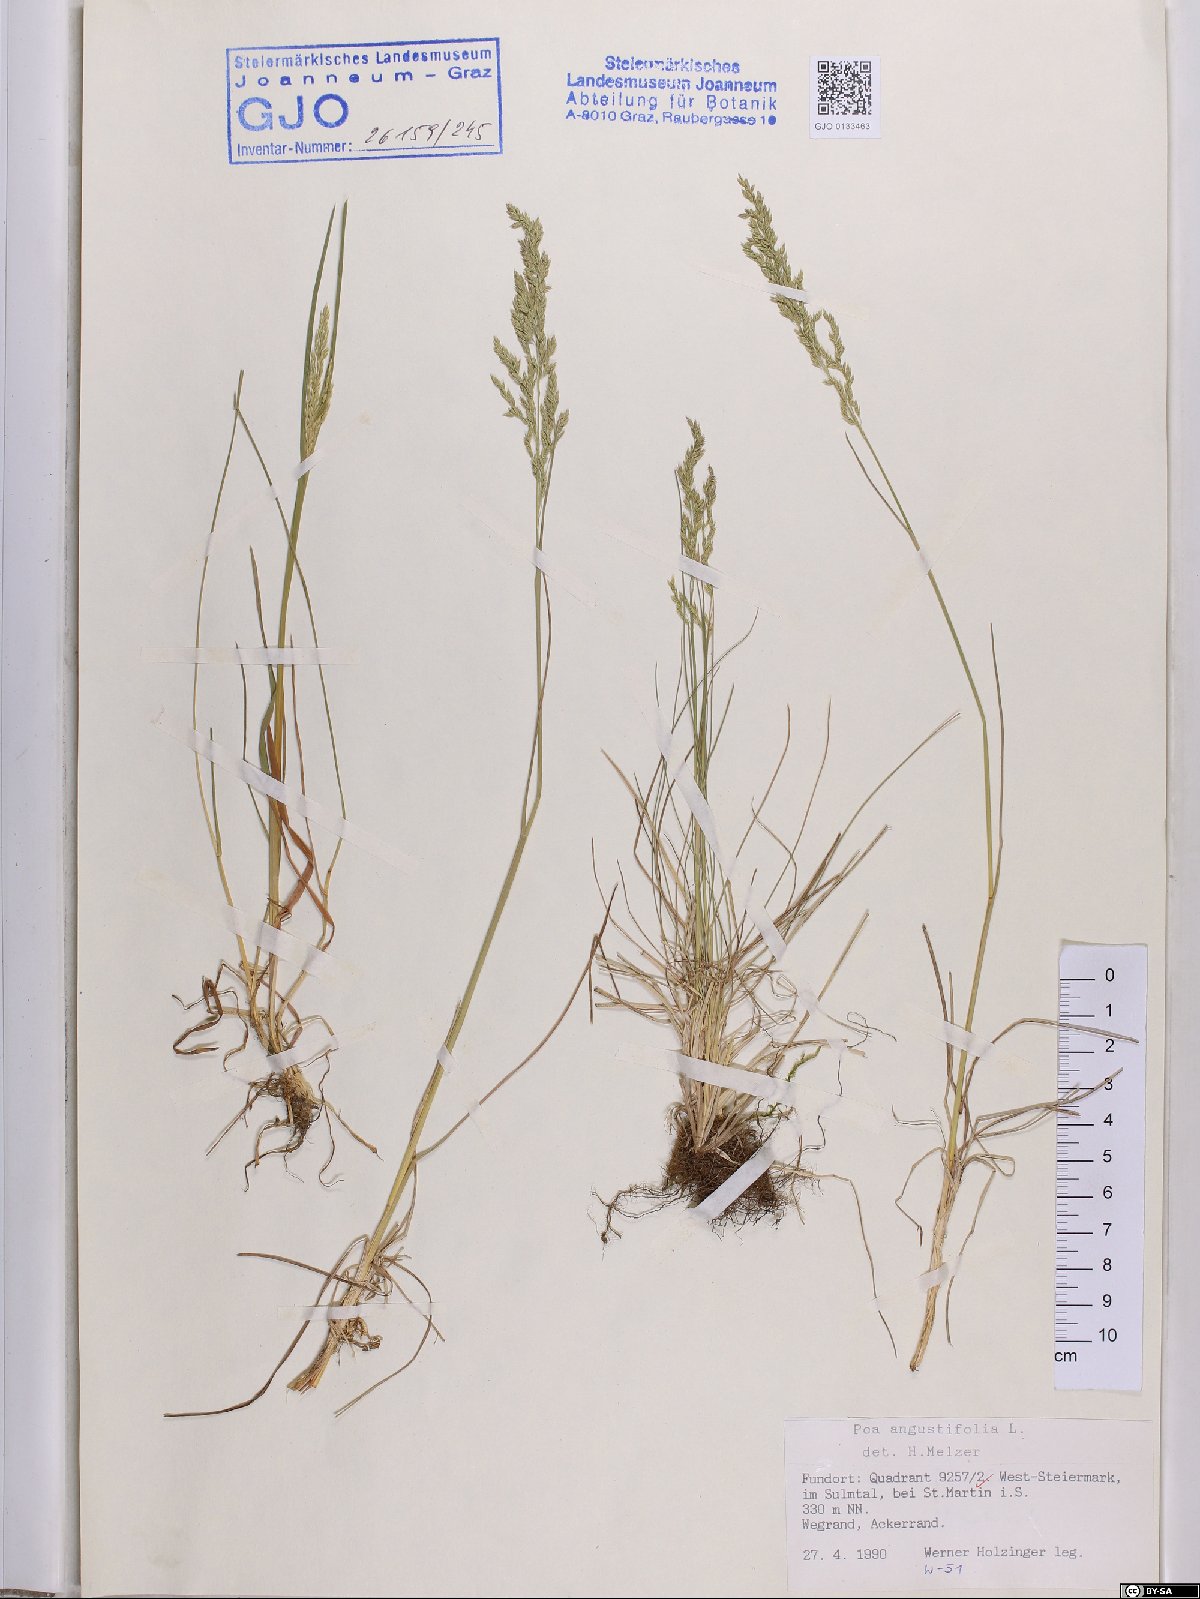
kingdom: Plantae
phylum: Tracheophyta
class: Liliopsida
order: Poales
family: Poaceae
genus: Poa
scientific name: Poa angustifolia
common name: Narrow-leaved meadow-grass
